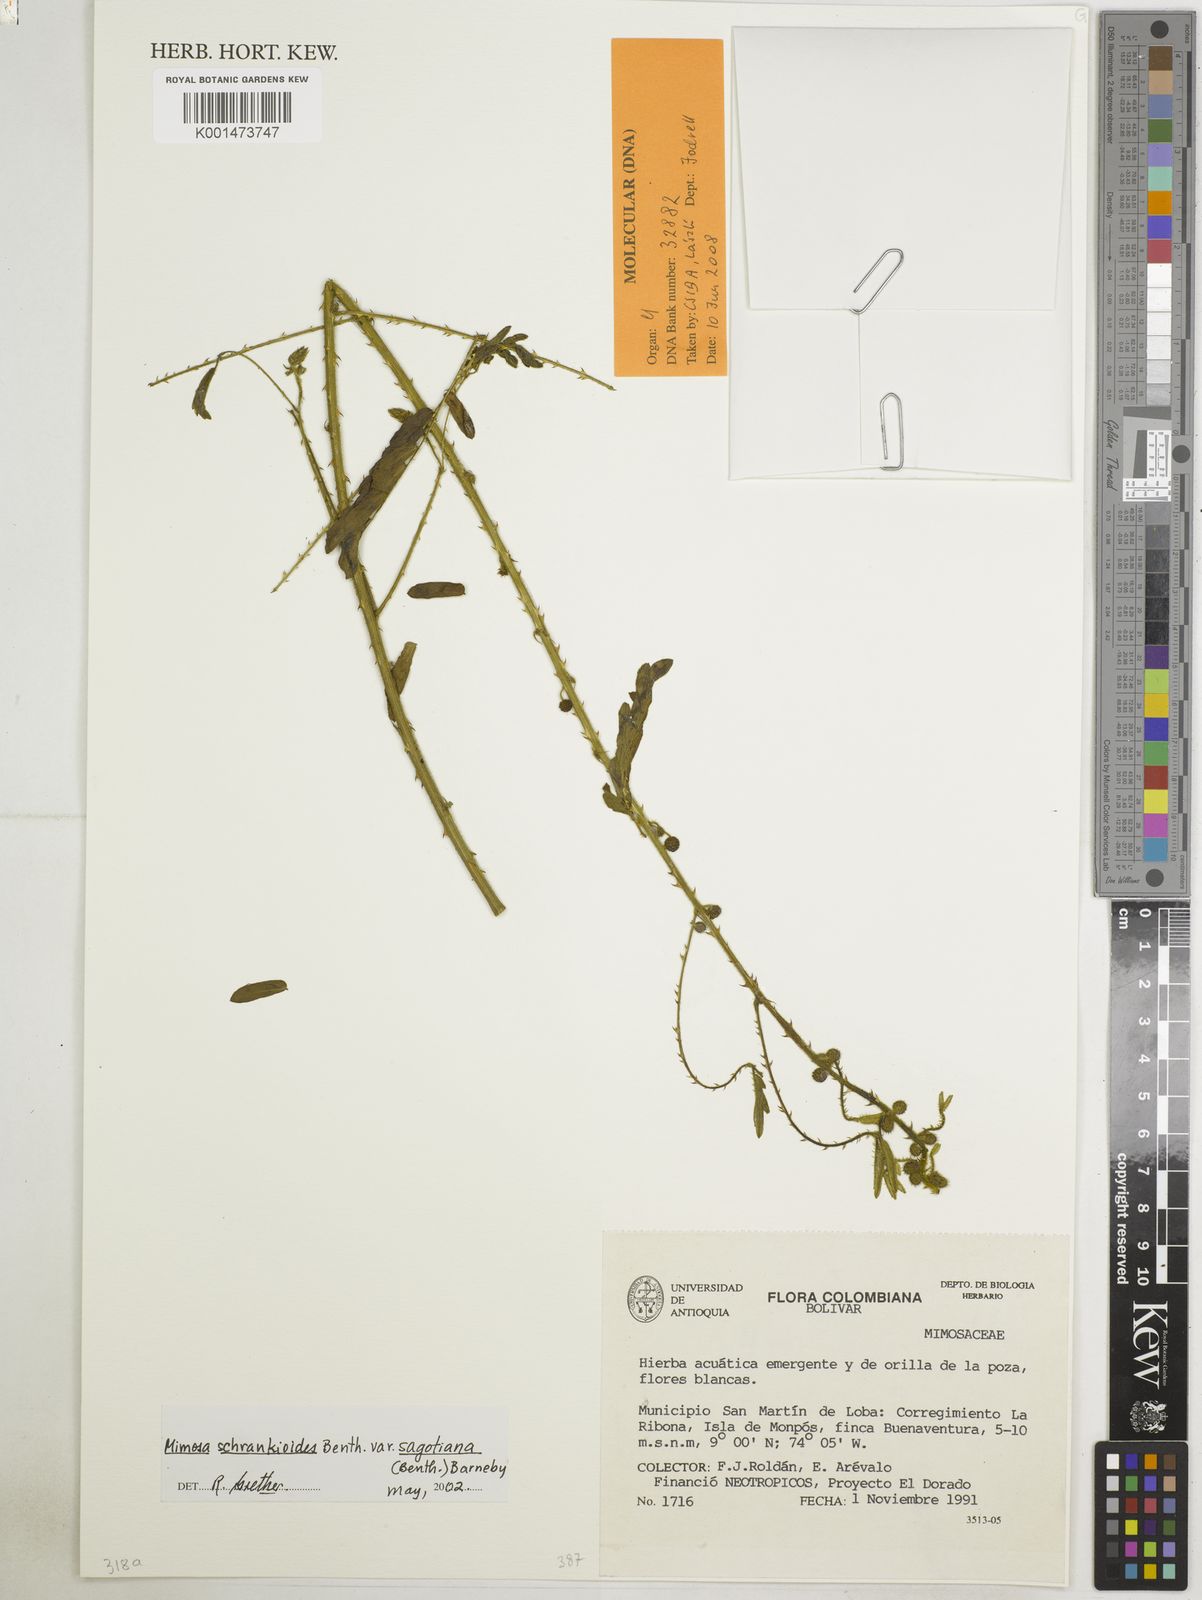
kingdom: Plantae
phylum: Tracheophyta
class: Magnoliopsida
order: Fabales
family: Fabaceae
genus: Mimosa
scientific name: Mimosa schrankioides
